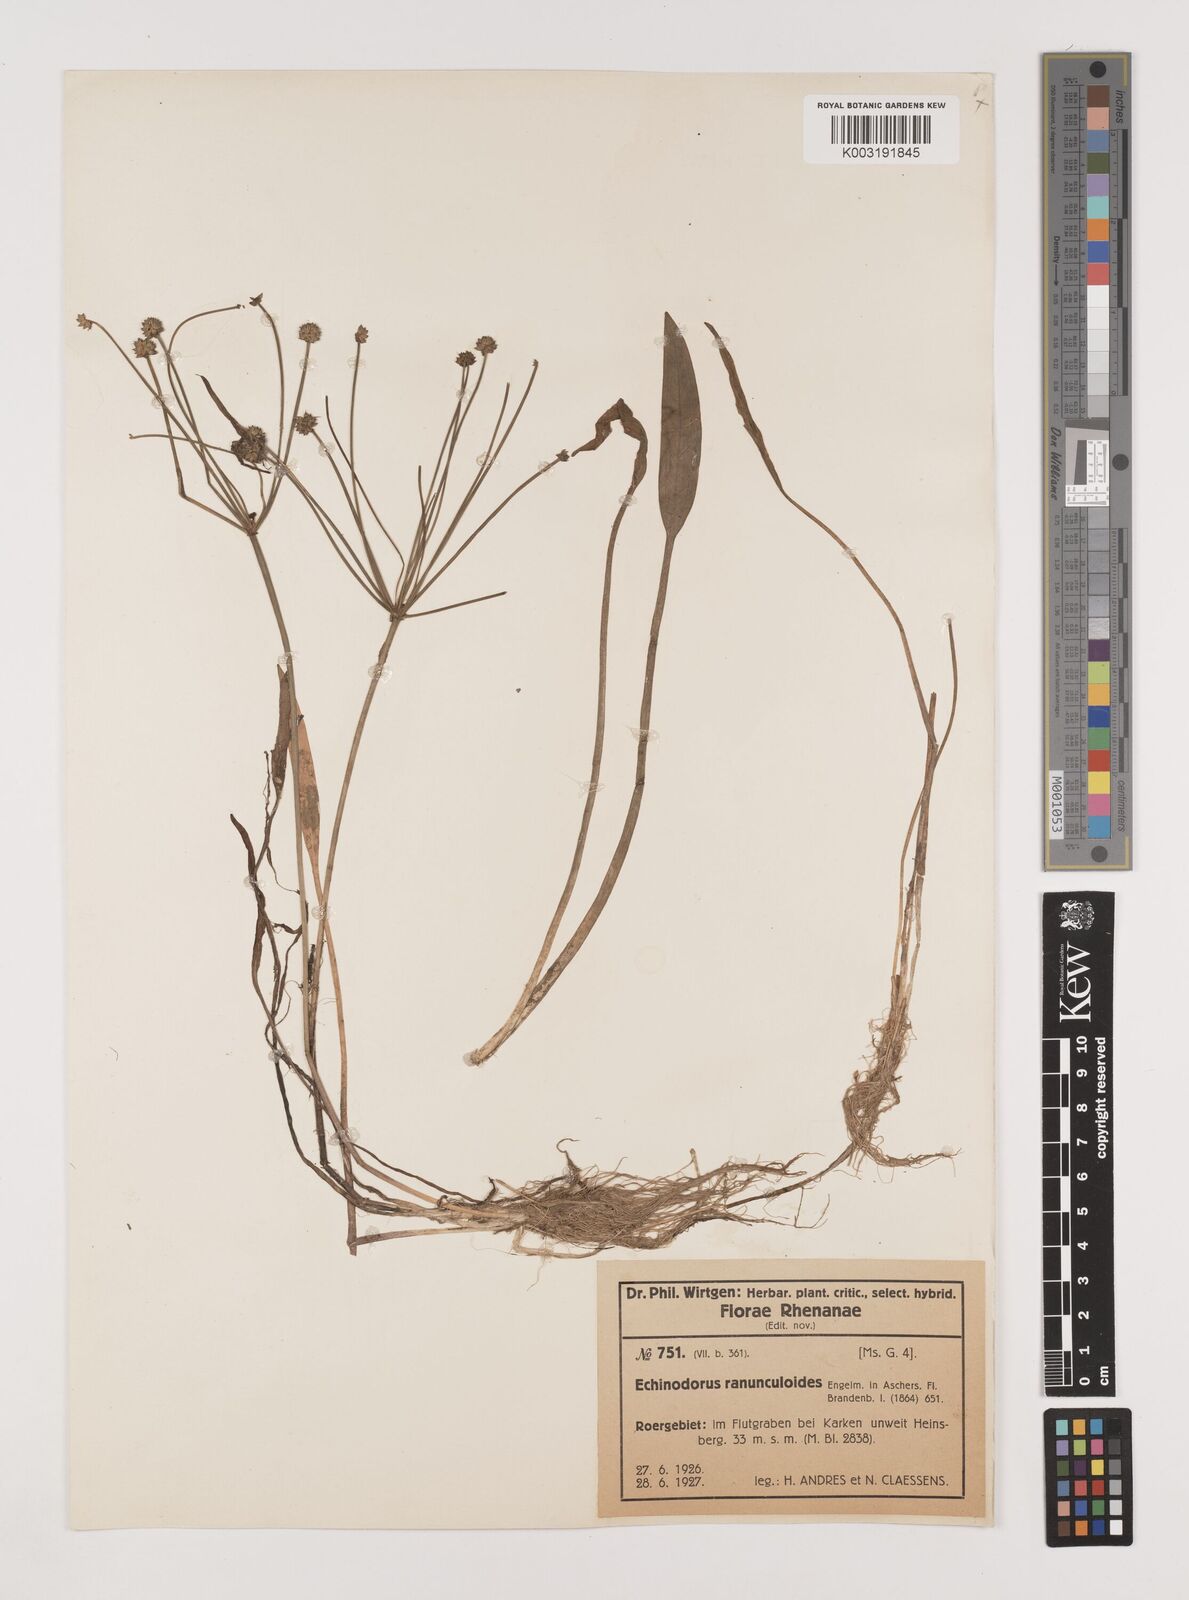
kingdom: Plantae
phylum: Tracheophyta
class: Liliopsida
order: Alismatales
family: Alismataceae
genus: Baldellia
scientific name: Baldellia ranunculoides
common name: Lesser water-plantain
